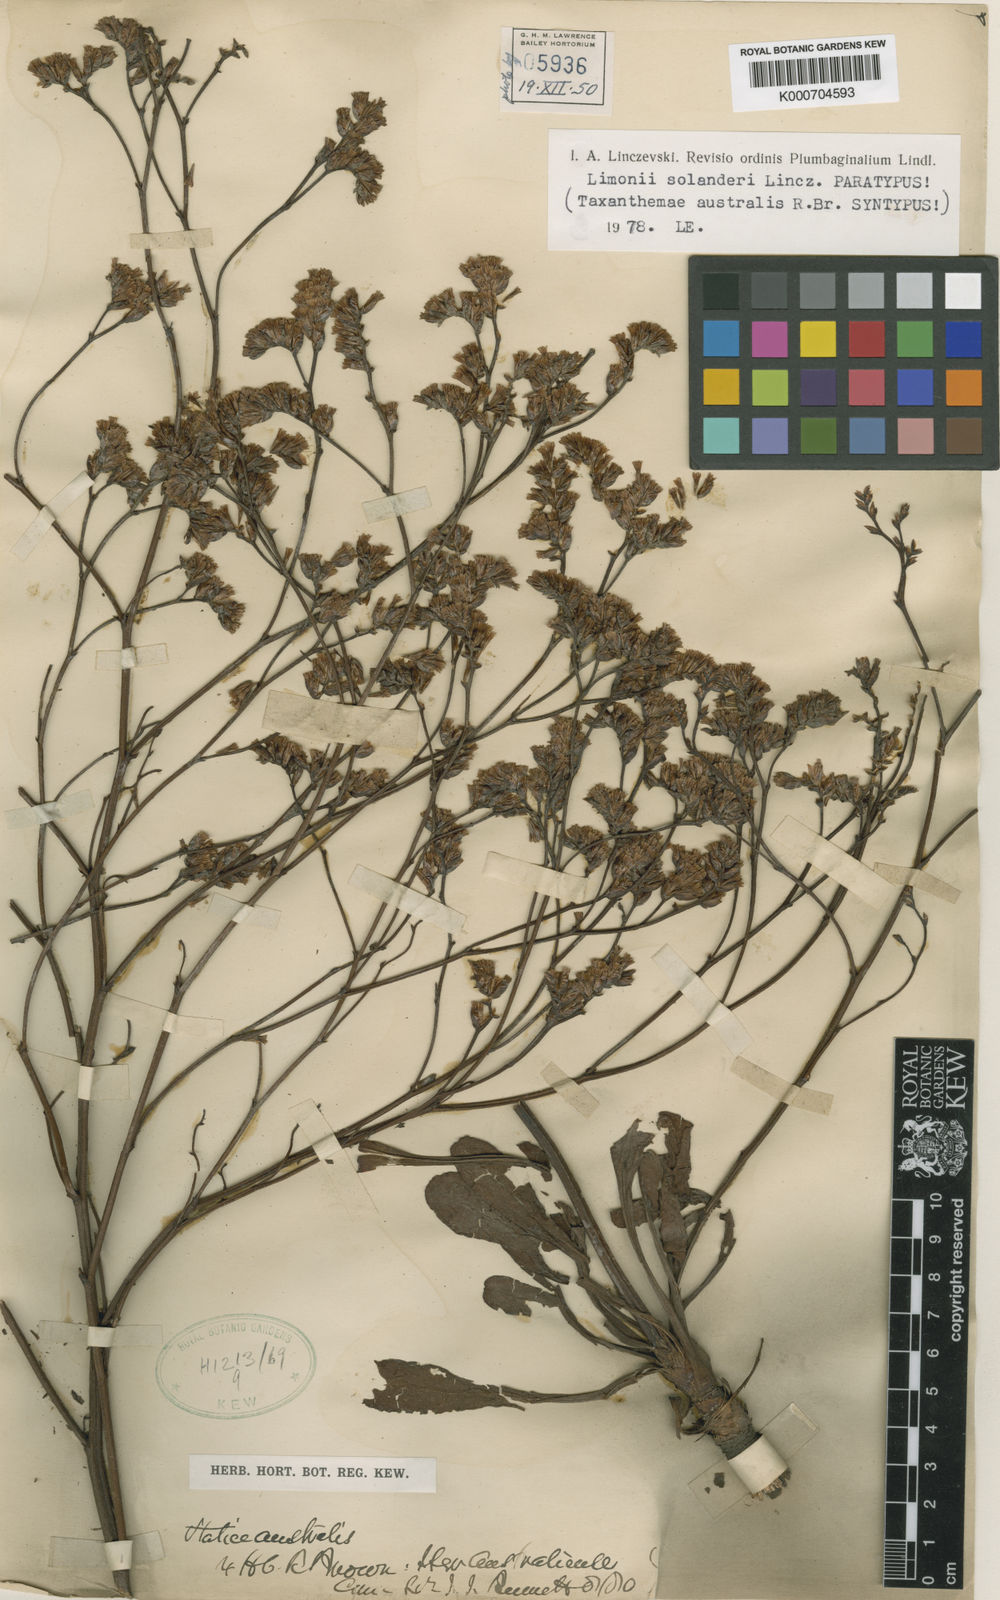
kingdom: Plantae
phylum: Tracheophyta
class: Magnoliopsida
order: Caryophyllales
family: Plumbaginaceae
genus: Limonium
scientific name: Limonium australe
